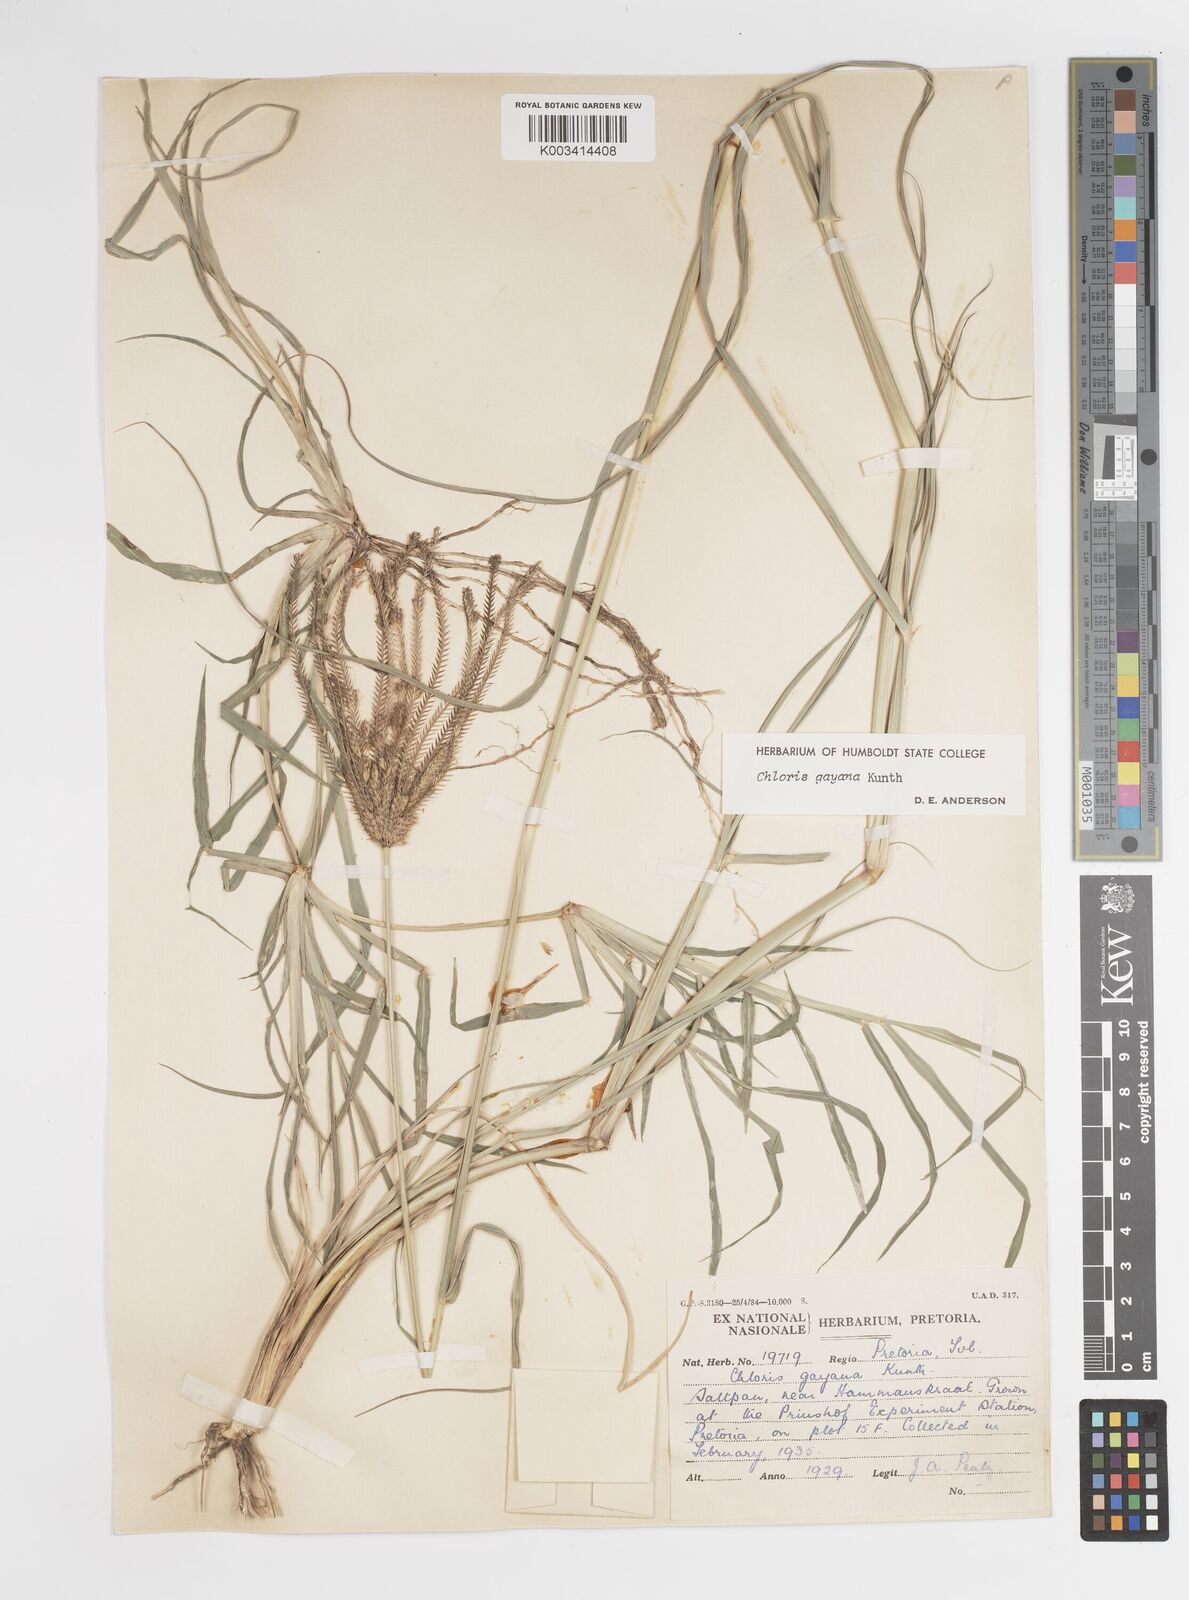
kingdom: Plantae
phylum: Tracheophyta
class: Liliopsida
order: Poales
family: Poaceae
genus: Chloris
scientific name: Chloris gayana
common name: Rhodes grass
